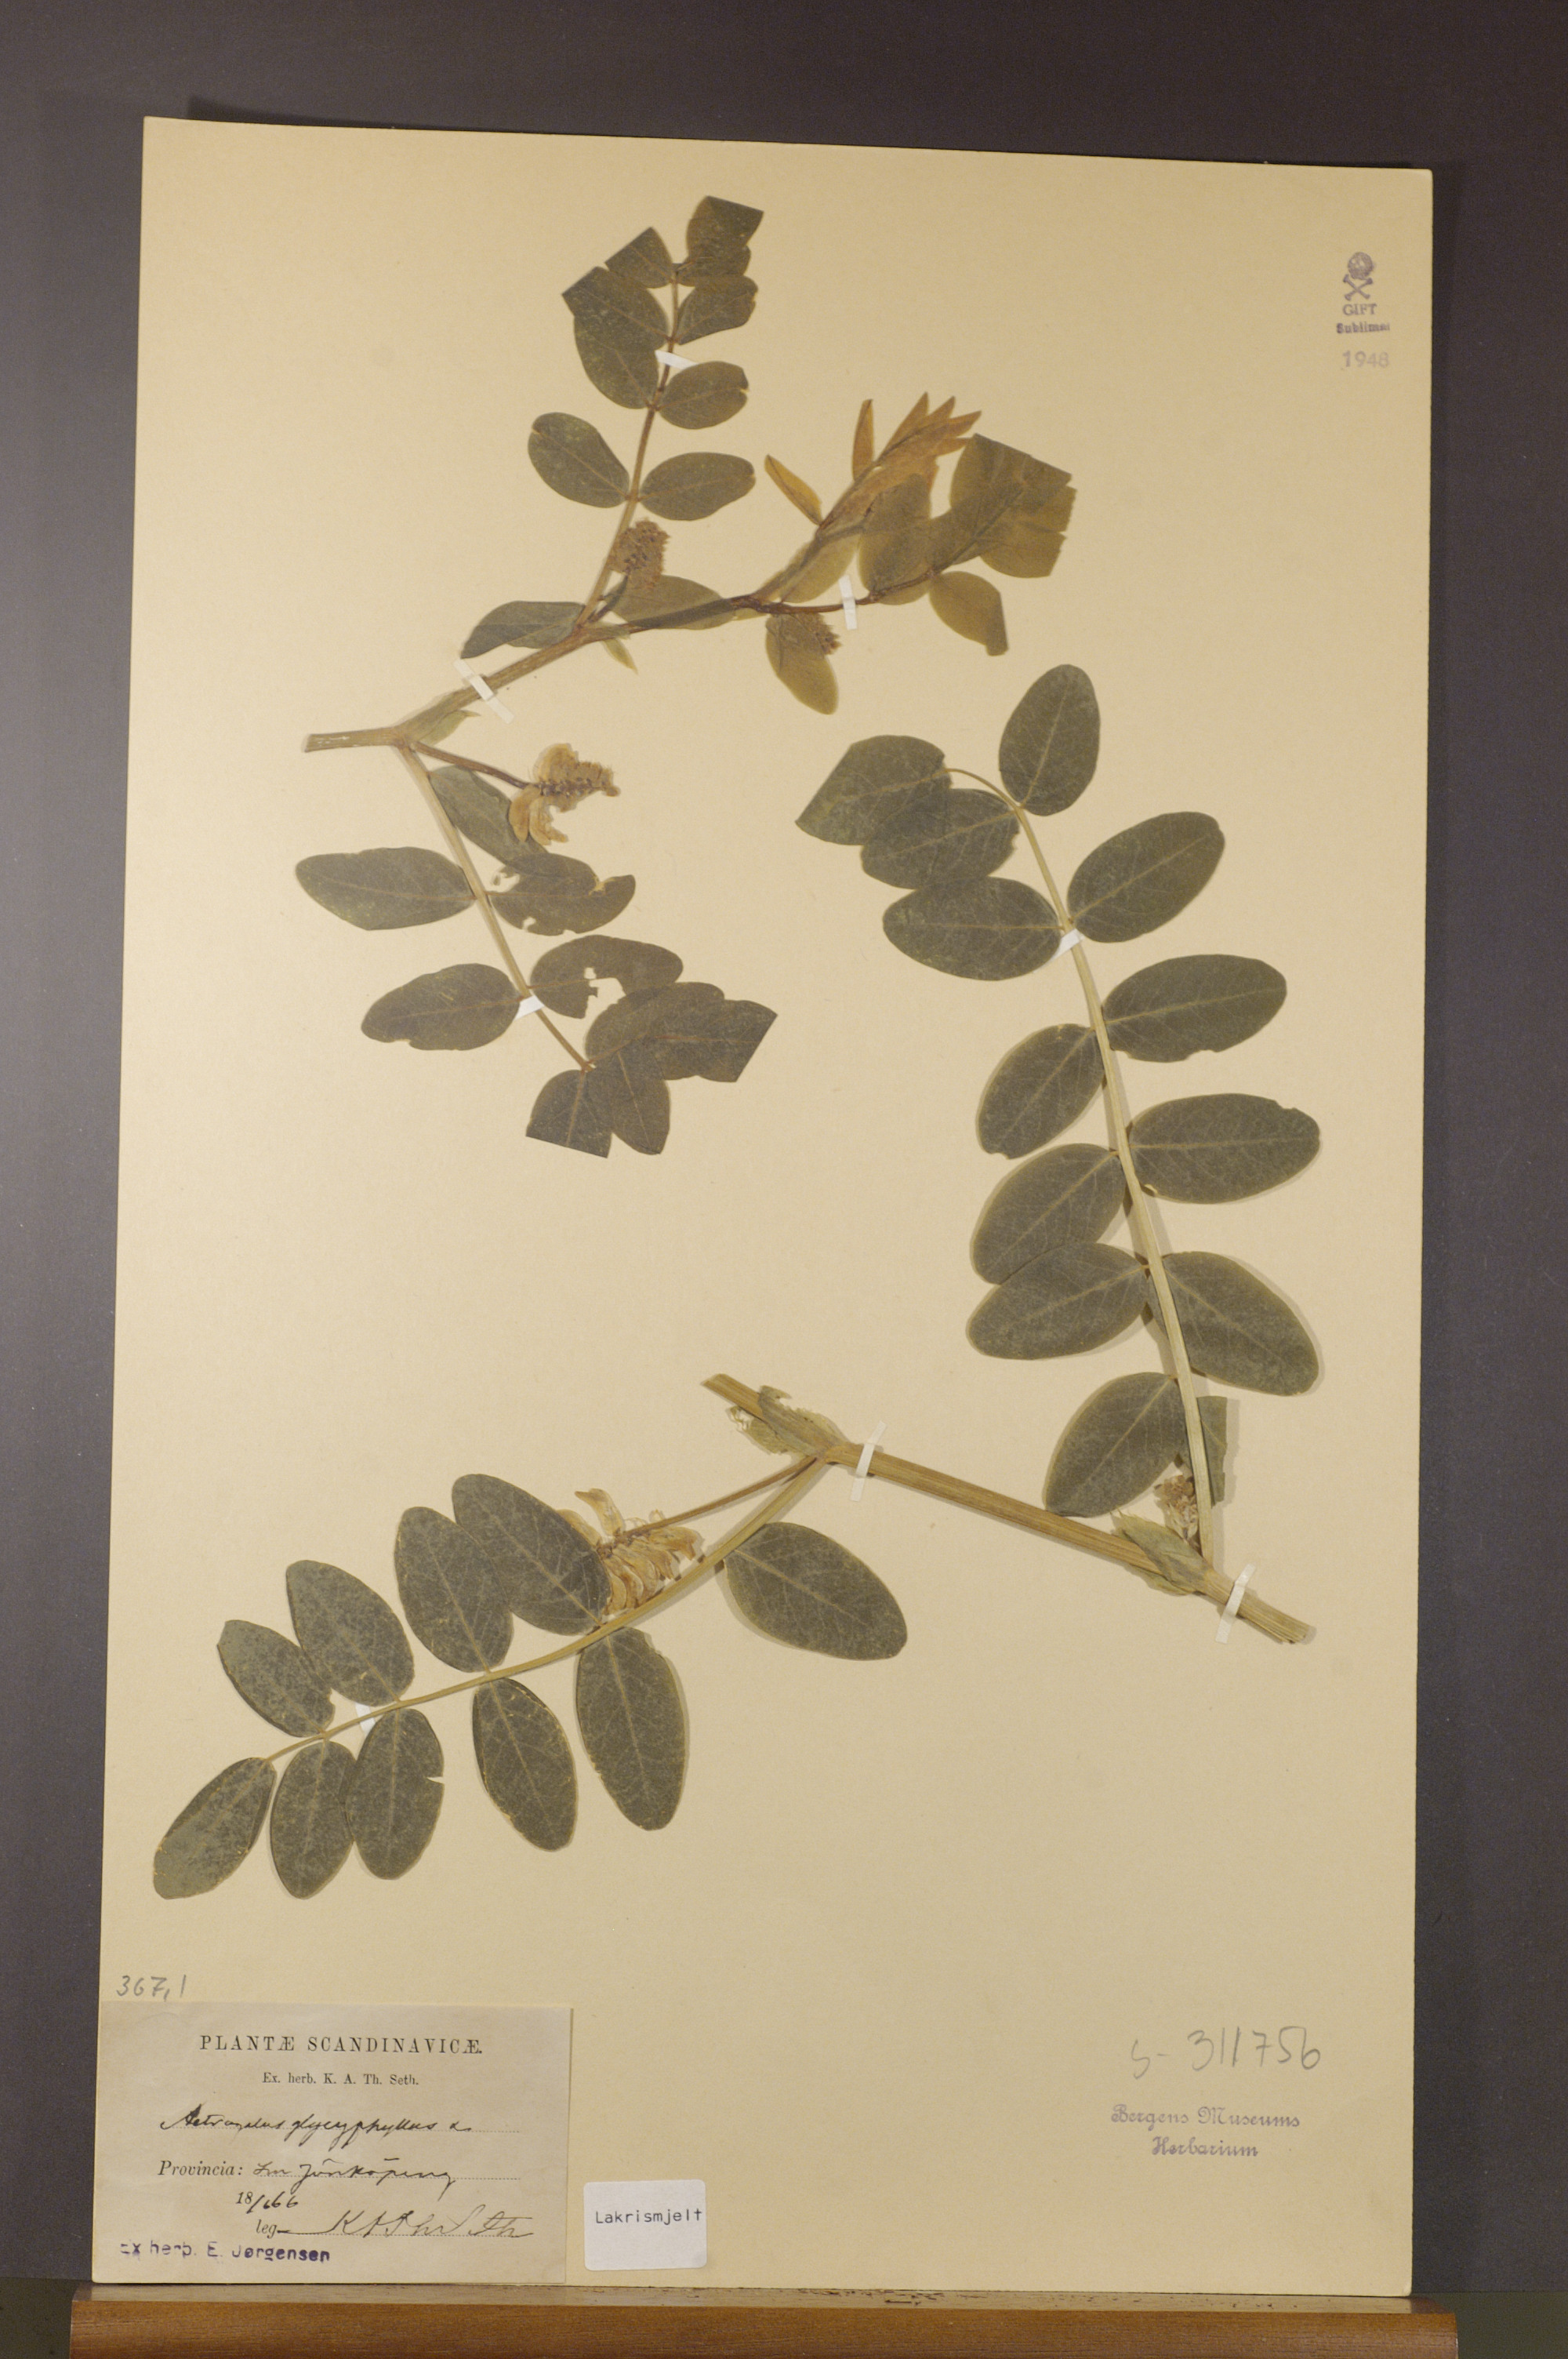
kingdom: Plantae
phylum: Tracheophyta
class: Magnoliopsida
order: Fabales
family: Fabaceae
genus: Astragalus
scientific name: Astragalus glycyphyllos
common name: Wild liquorice
